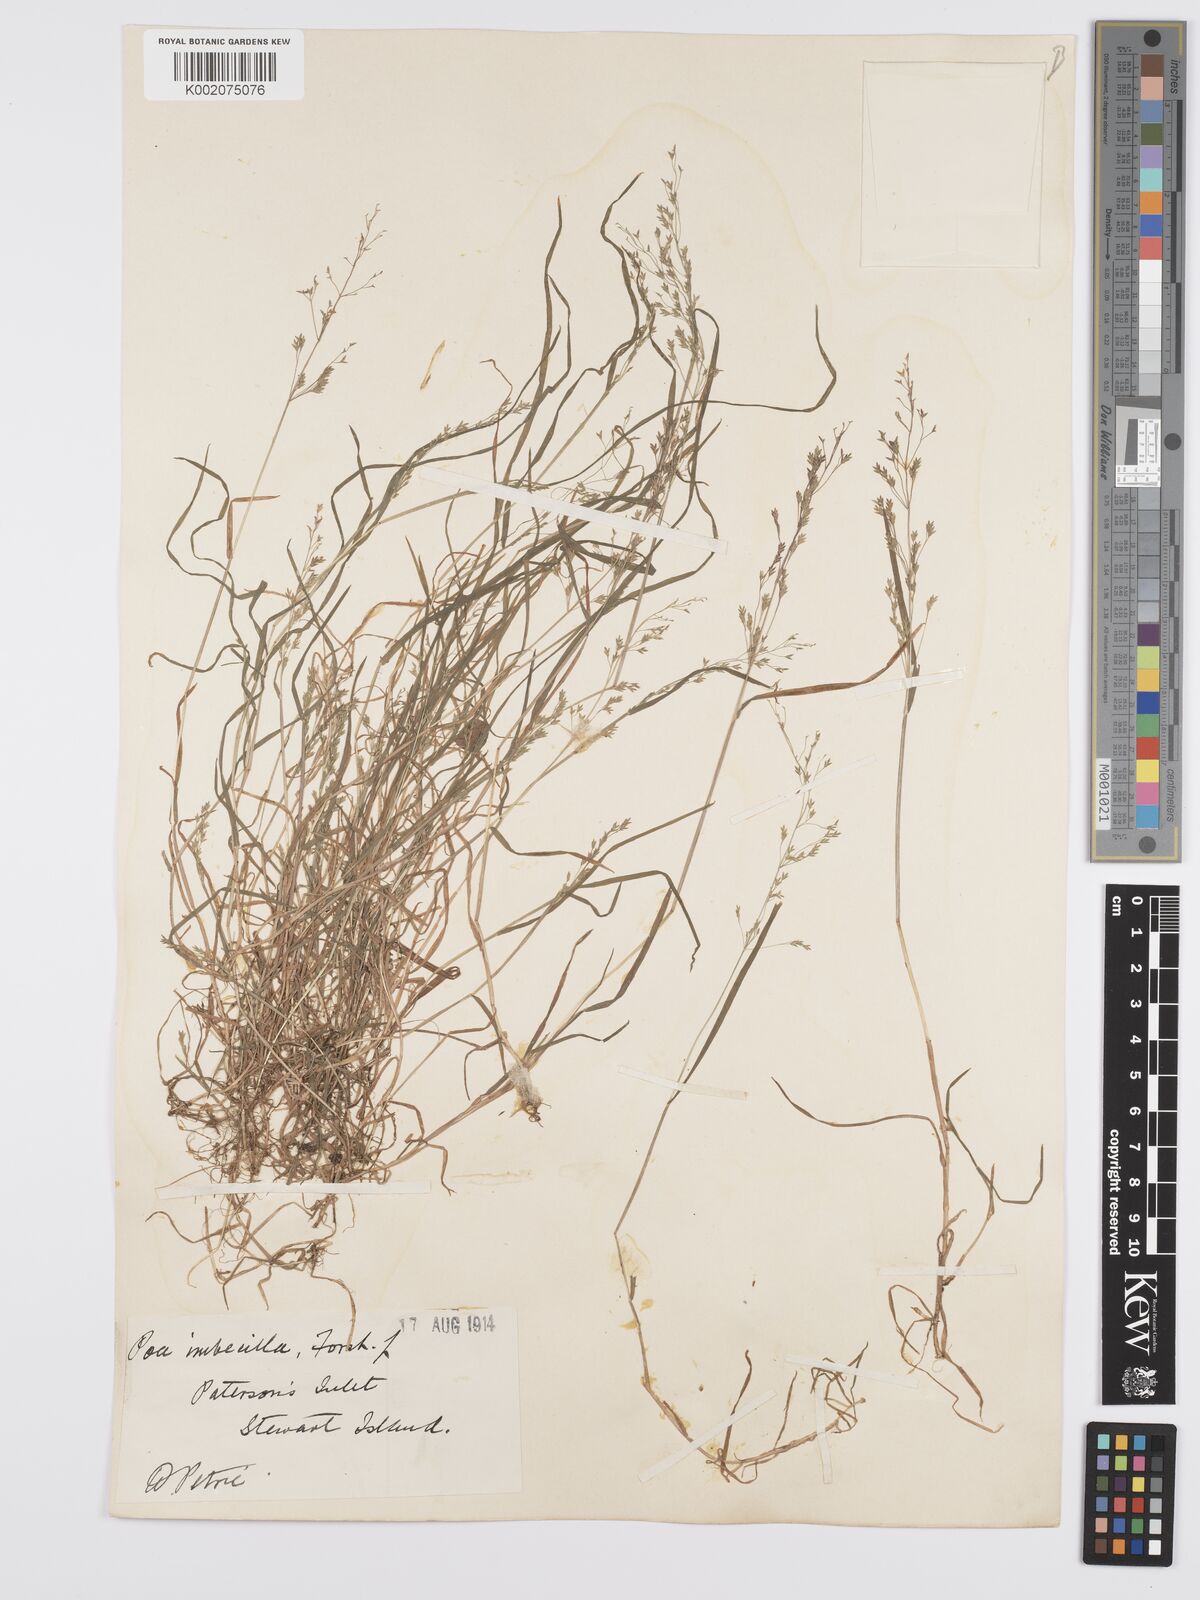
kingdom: Plantae
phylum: Tracheophyta
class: Liliopsida
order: Poales
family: Poaceae
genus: Poa
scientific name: Poa breviglumis
